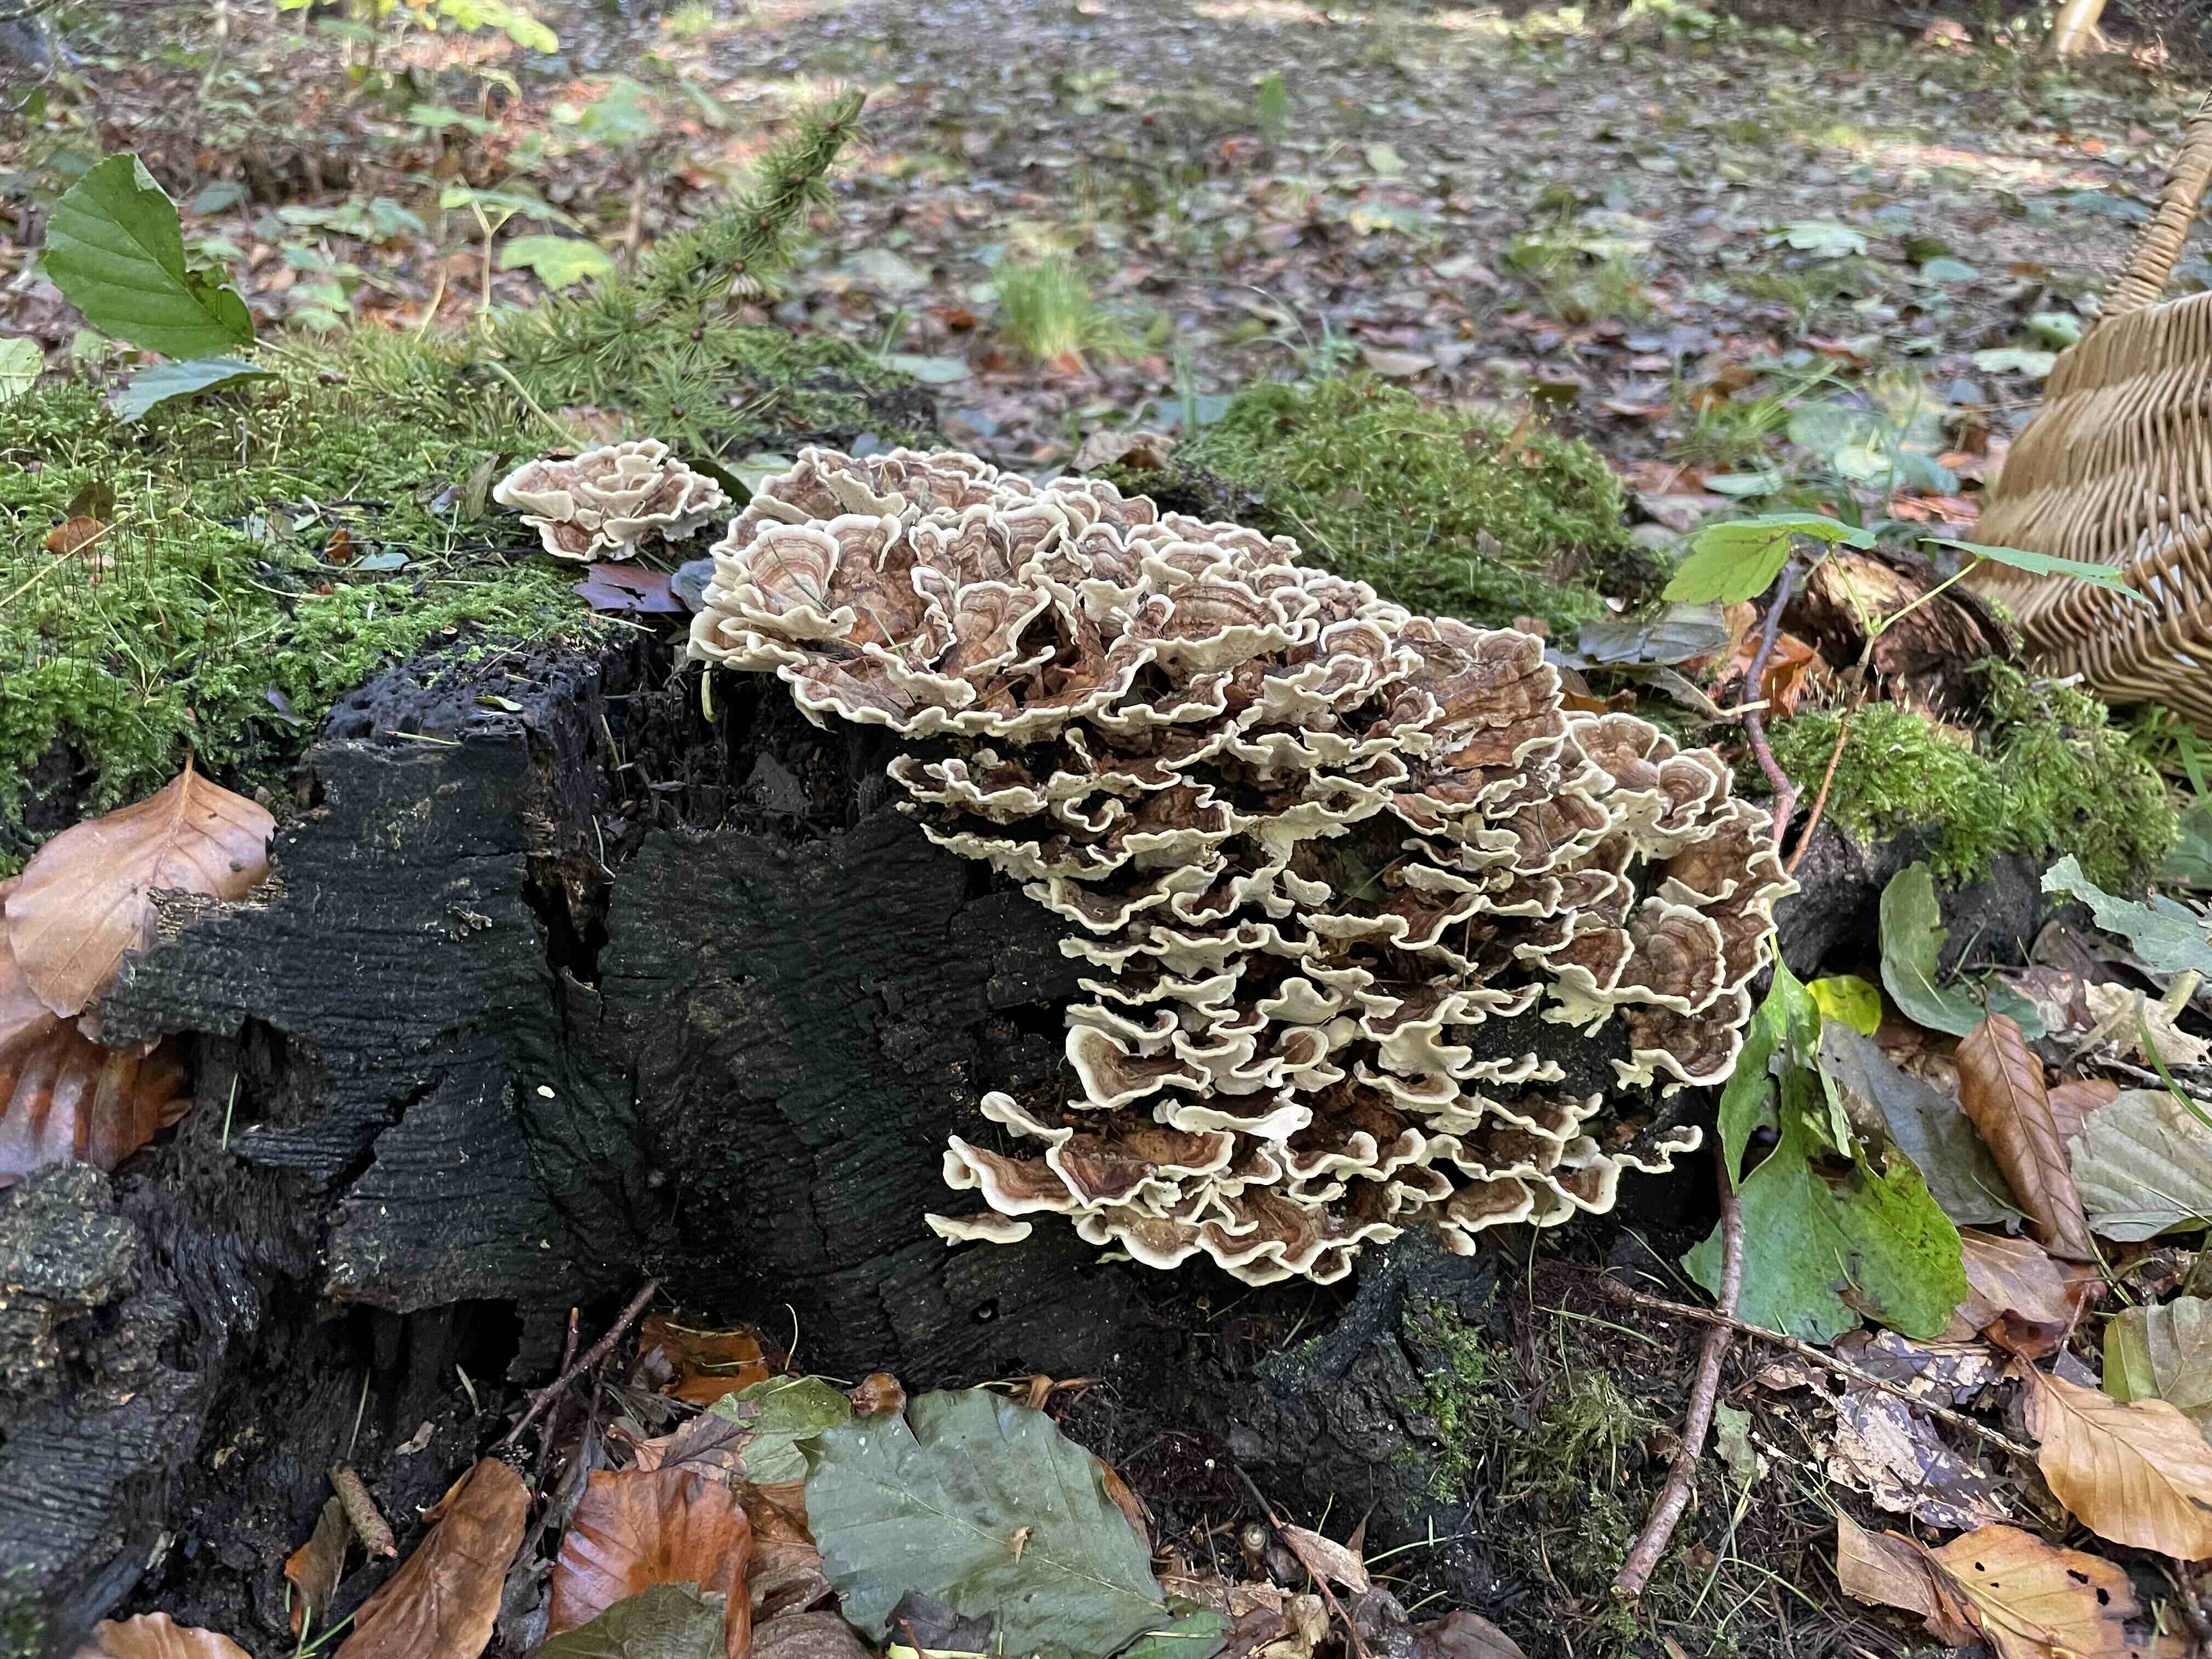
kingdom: Fungi
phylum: Basidiomycota
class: Agaricomycetes
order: Polyporales
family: Polyporaceae
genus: Trametes
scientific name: Trametes versicolor
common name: broget læderporesvamp
